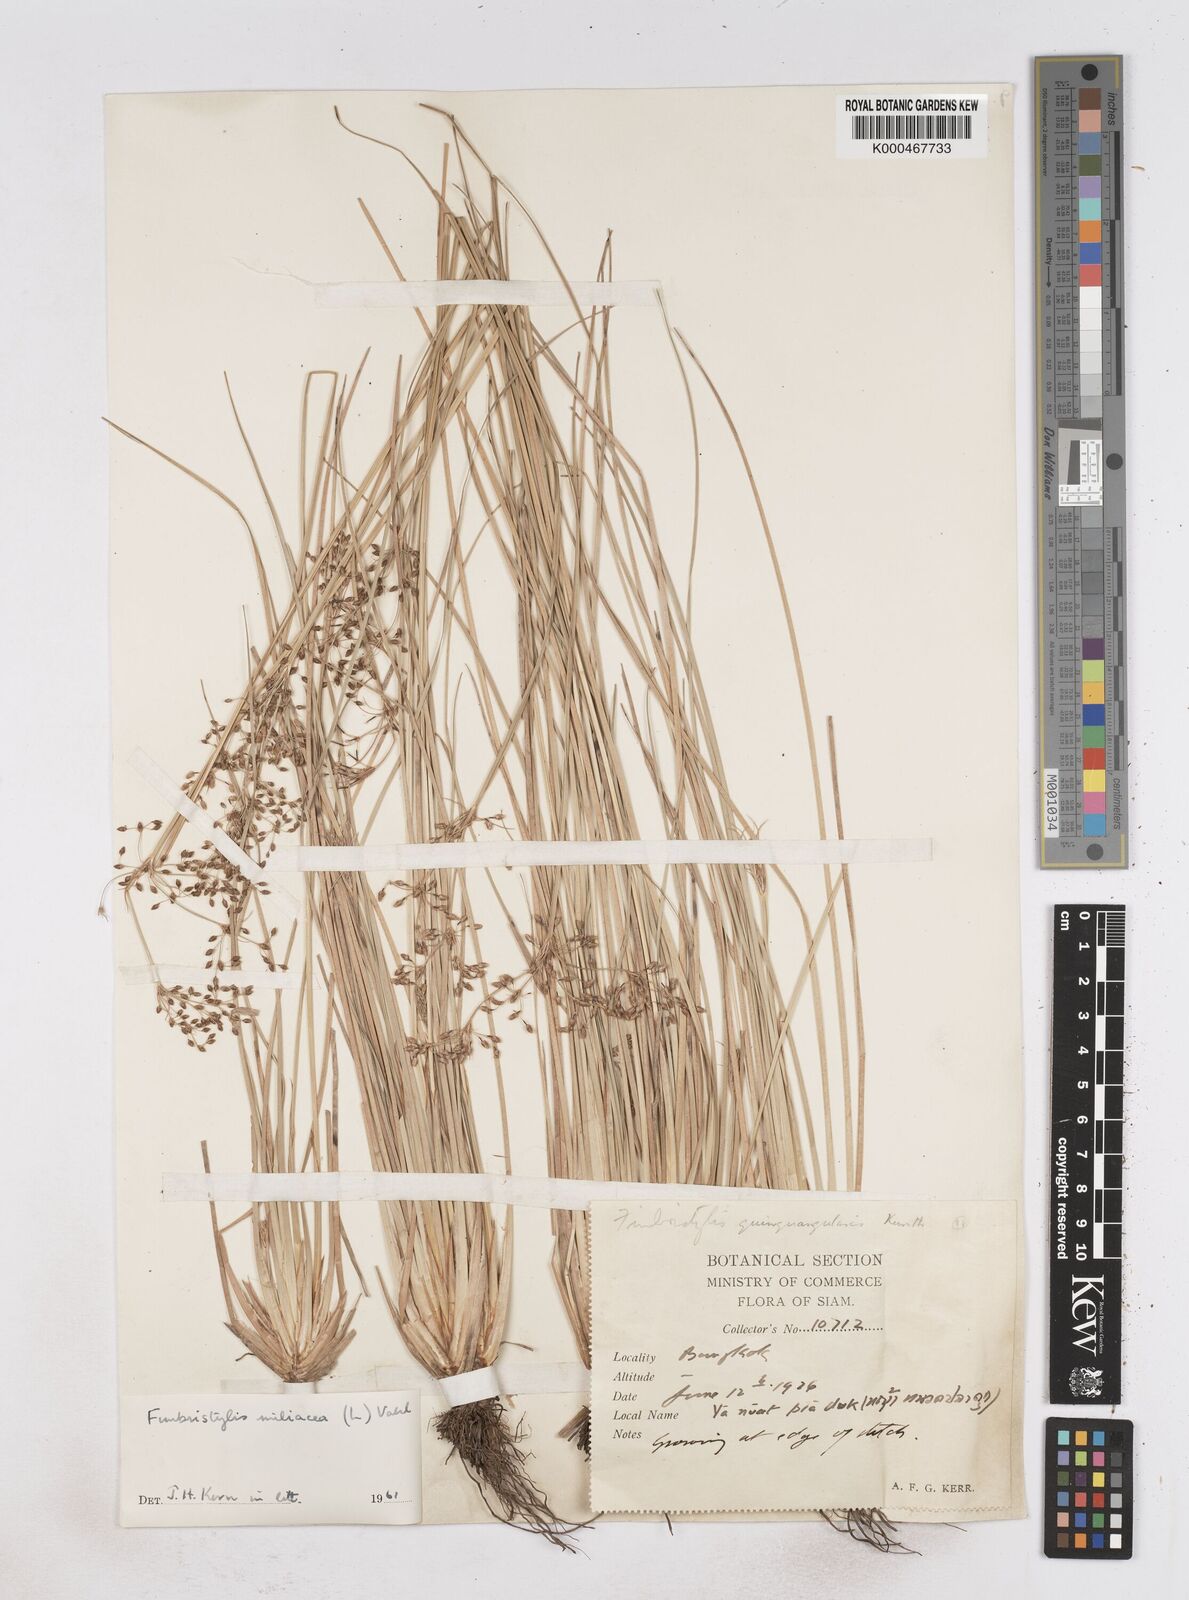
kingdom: Plantae
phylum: Tracheophyta
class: Liliopsida
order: Poales
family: Cyperaceae
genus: Fimbristylis
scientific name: Fimbristylis quinquangularis
